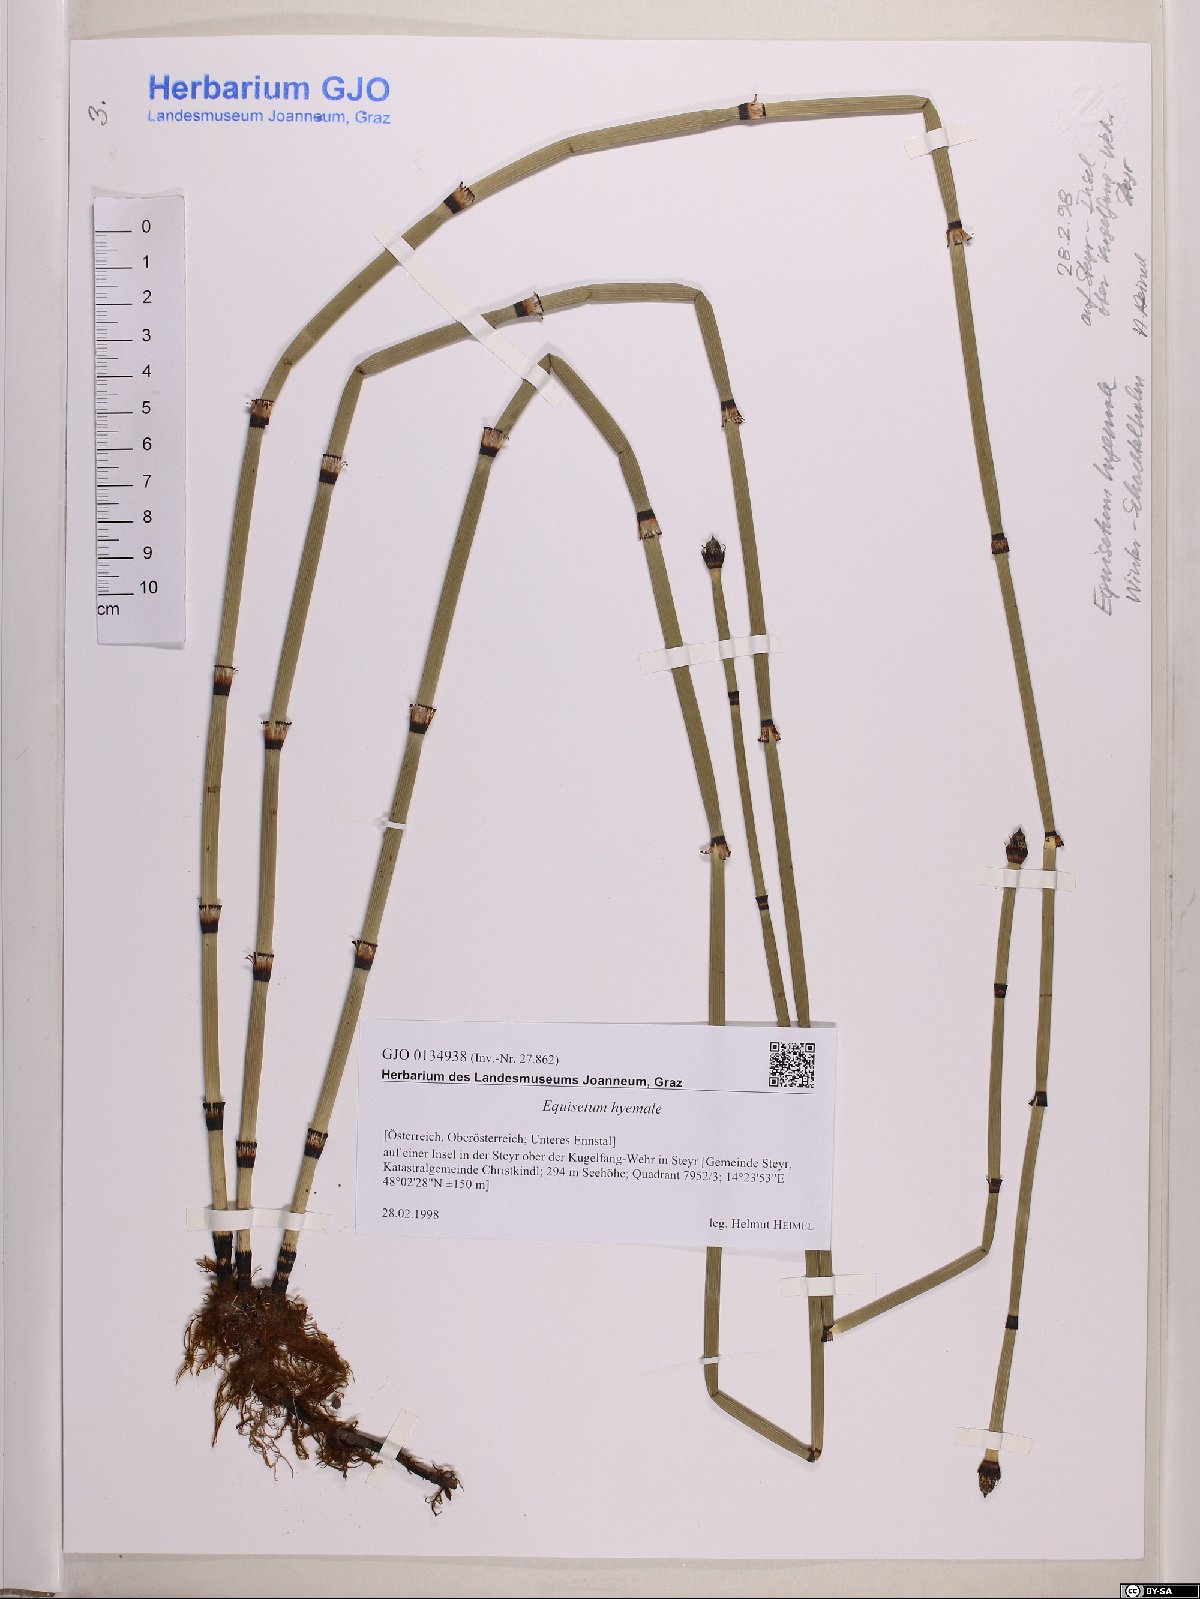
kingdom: Plantae
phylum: Tracheophyta
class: Polypodiopsida
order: Equisetales
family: Equisetaceae
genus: Equisetum
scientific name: Equisetum hyemale
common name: Rough horsetail
